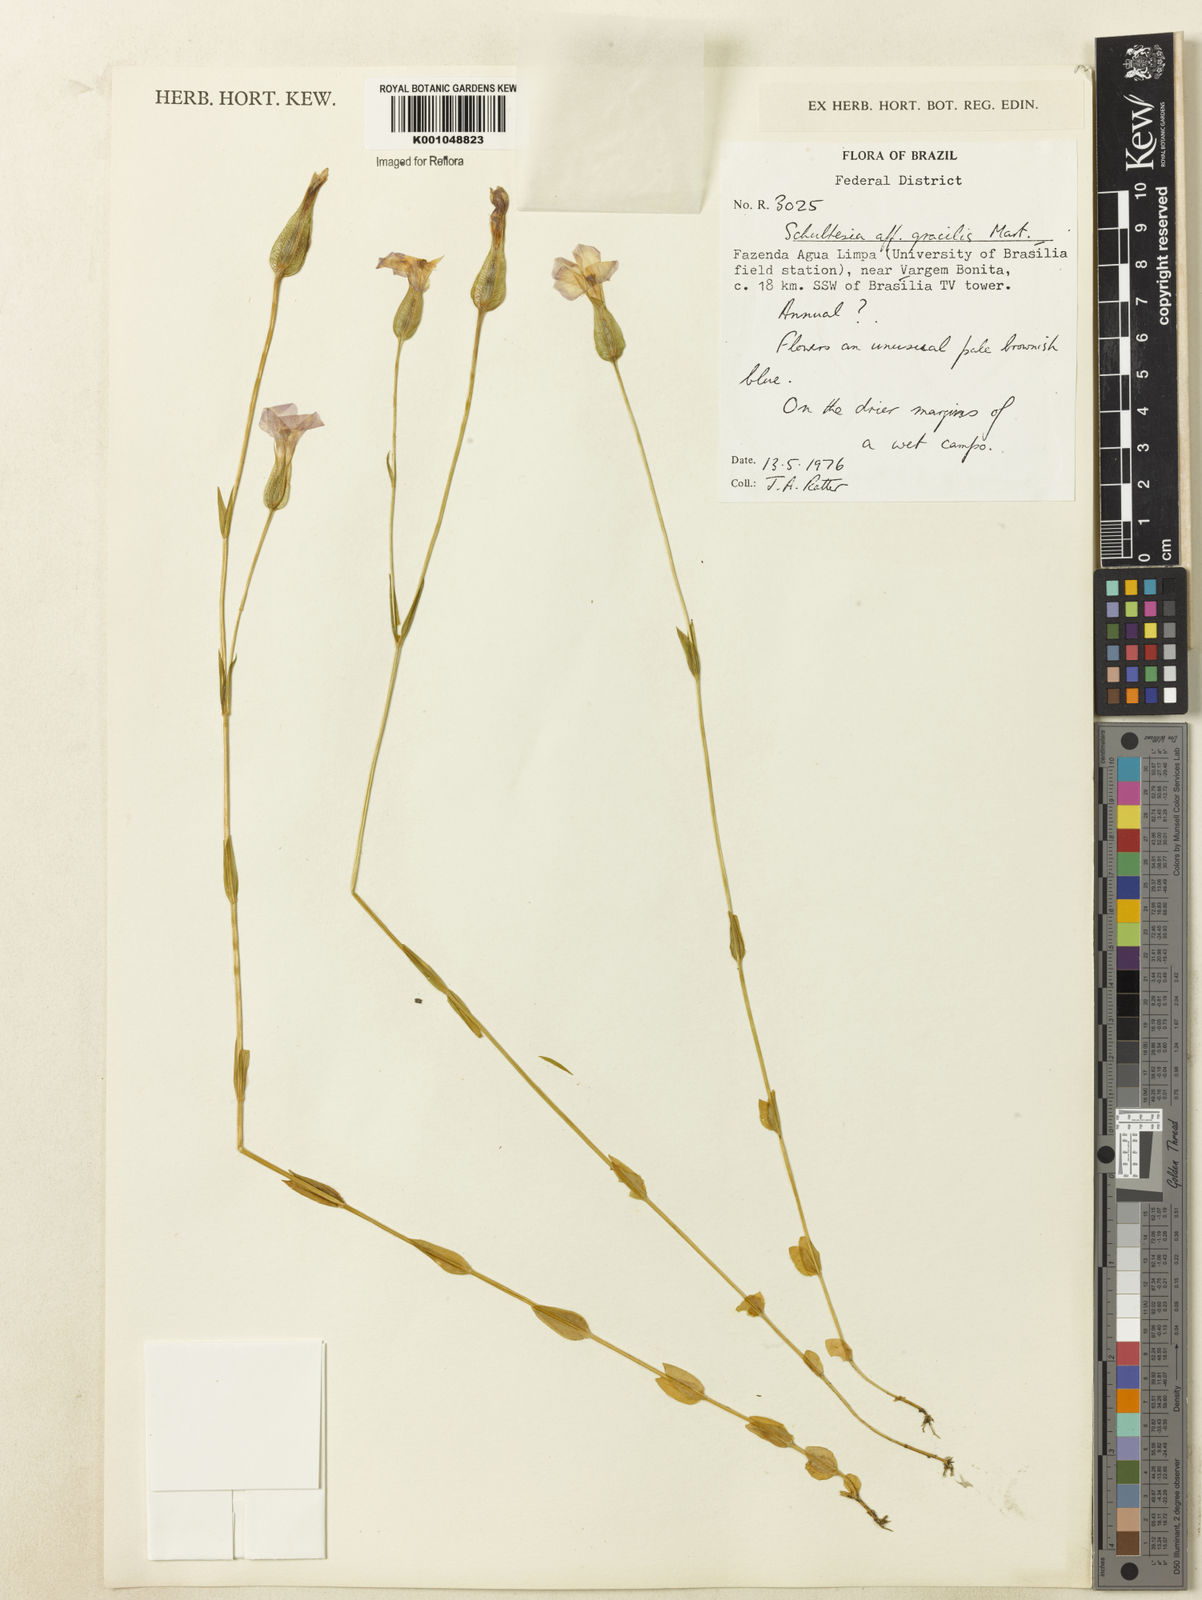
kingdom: Plantae
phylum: Tracheophyta
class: Magnoliopsida
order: Gentianales
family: Gentianaceae
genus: Schultesia
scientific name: Schultesia gracilis
